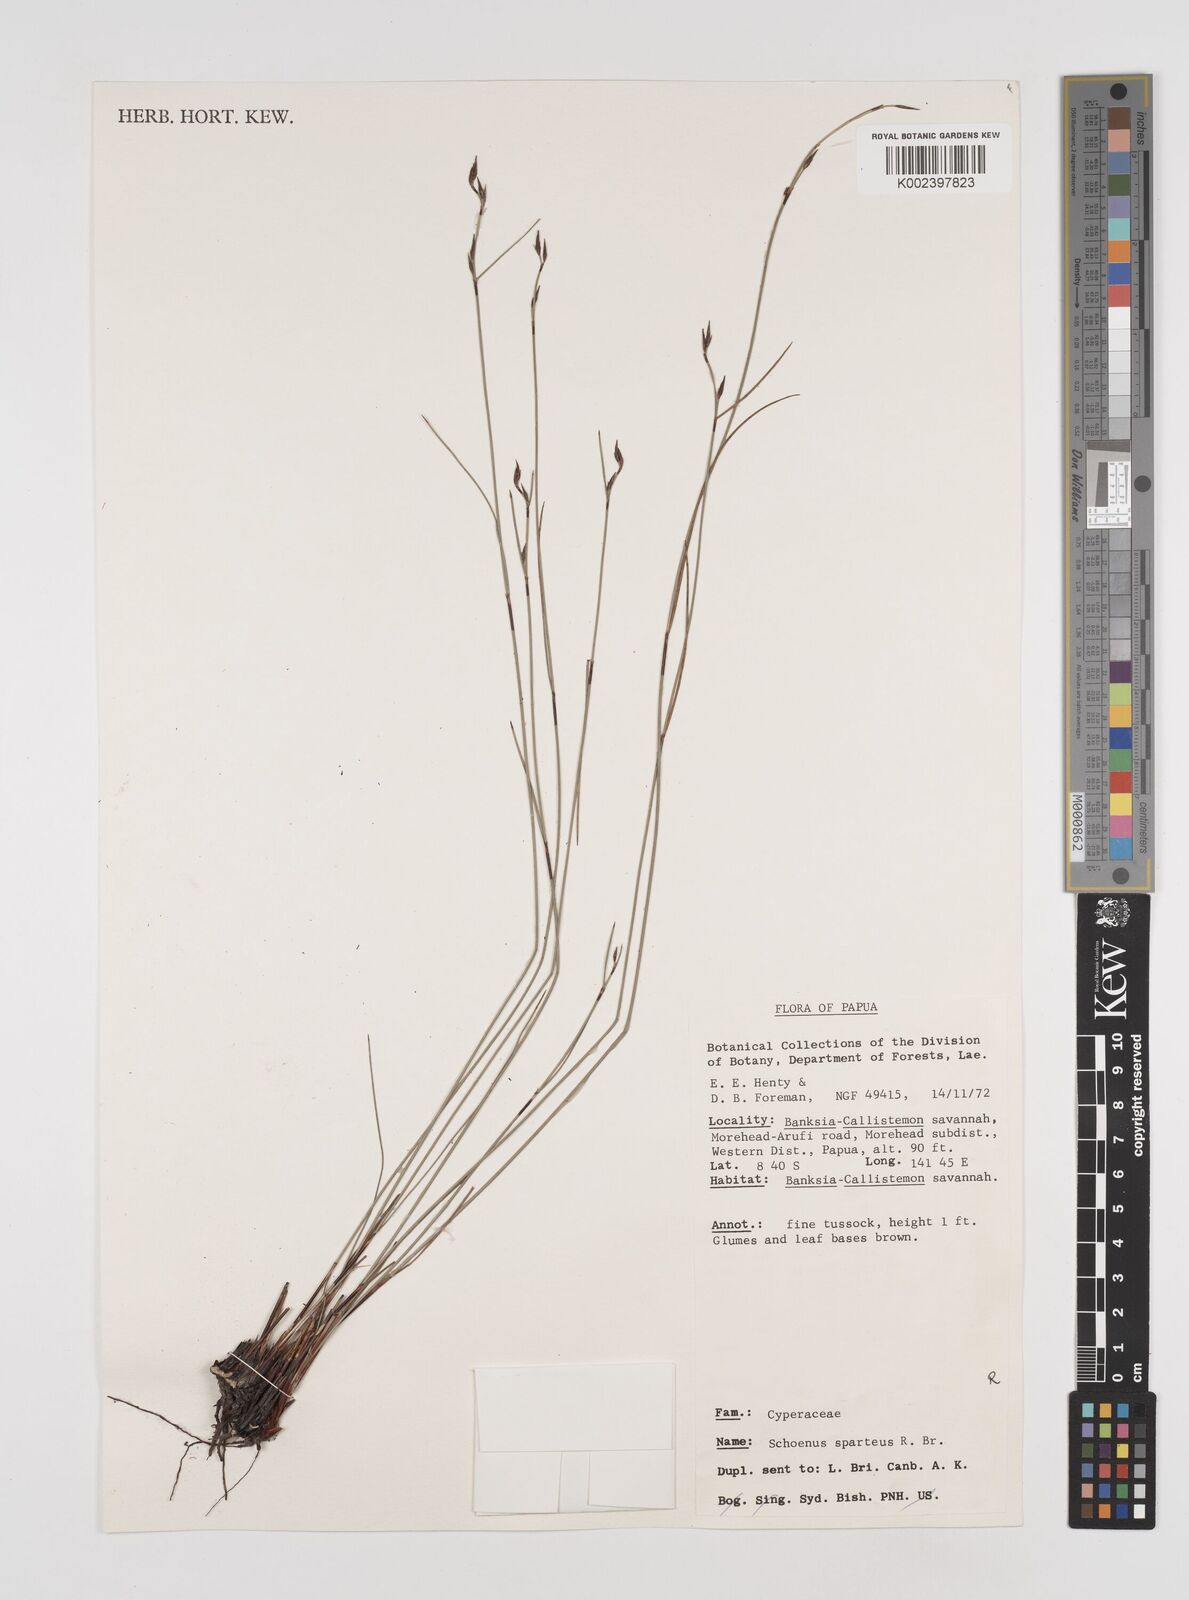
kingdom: Plantae
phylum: Tracheophyta
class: Liliopsida
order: Poales
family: Cyperaceae
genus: Schoenus
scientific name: Schoenus sparteus
